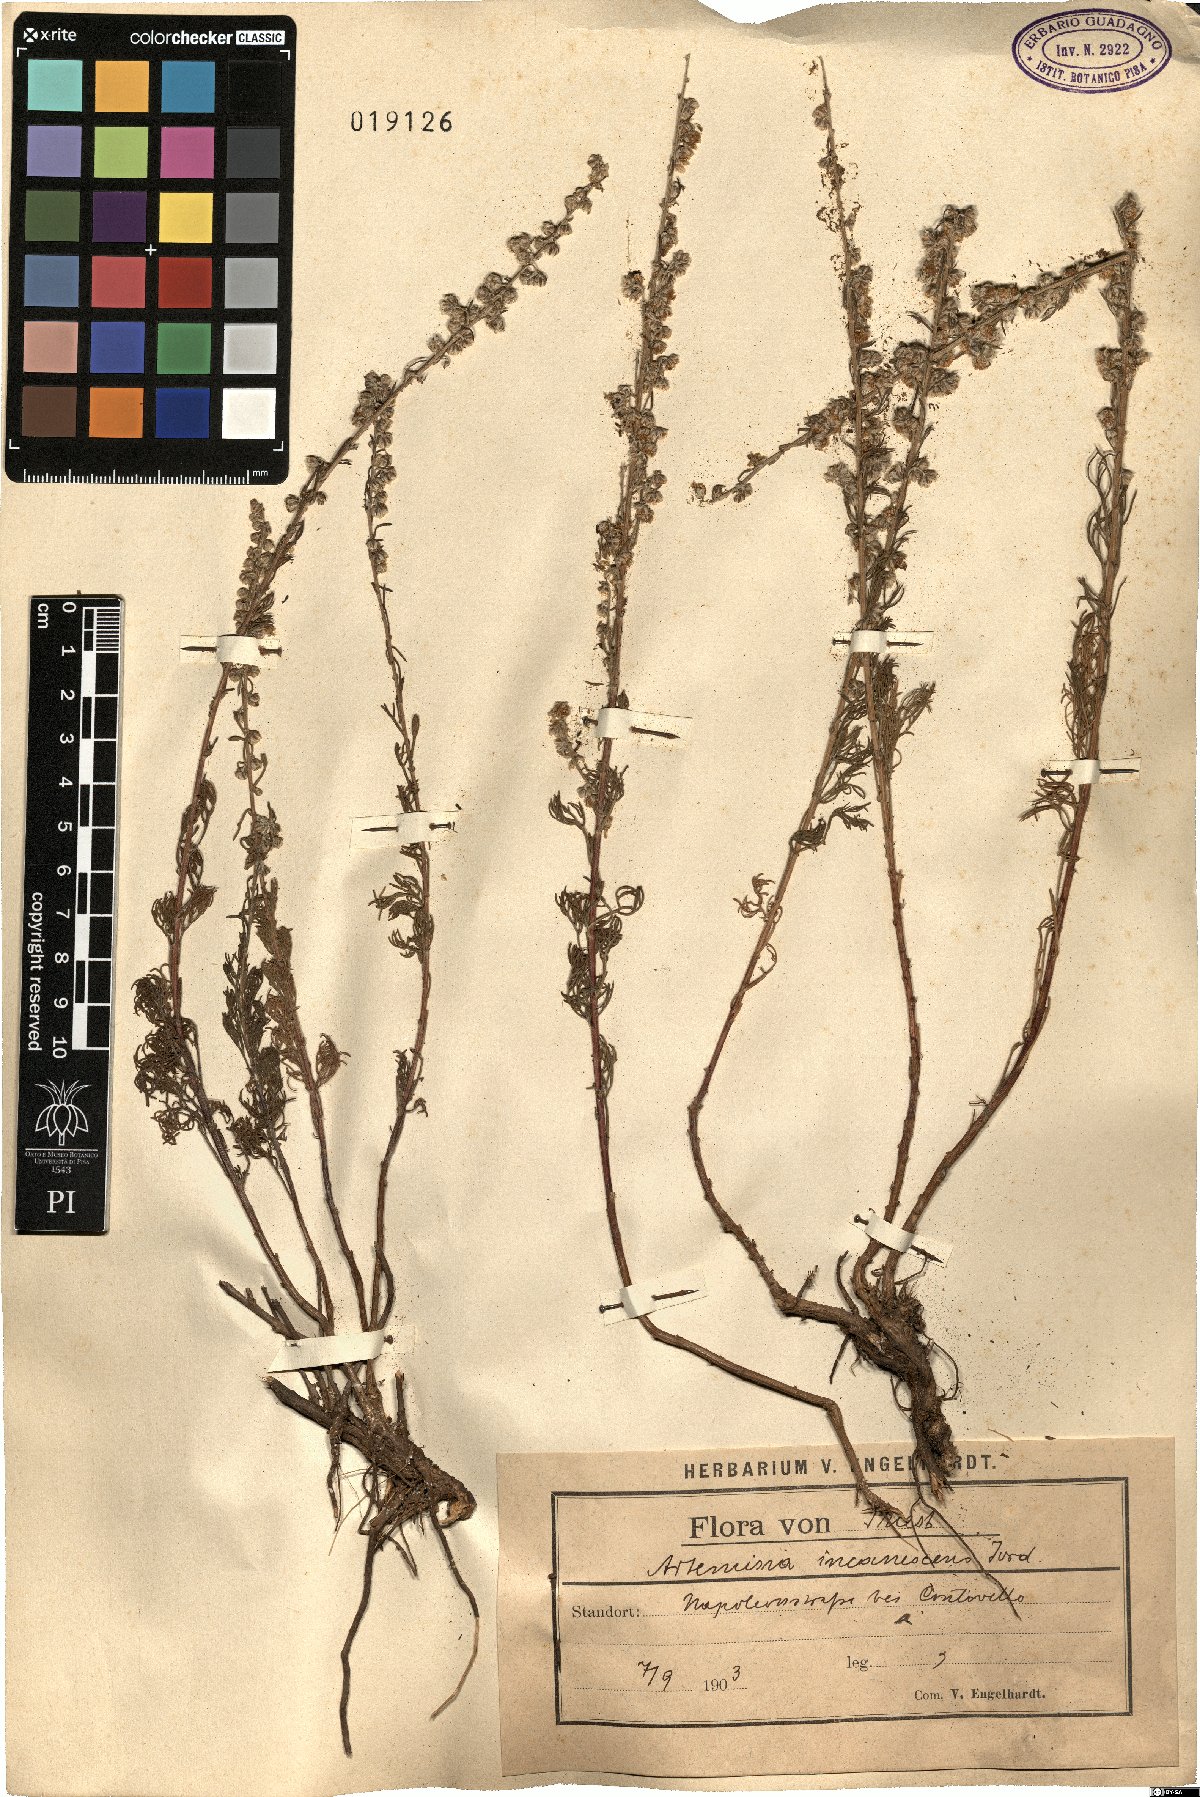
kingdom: Plantae
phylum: Tracheophyta
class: Magnoliopsida
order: Asterales
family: Asteraceae
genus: Artemisia
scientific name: Artemisia alba
